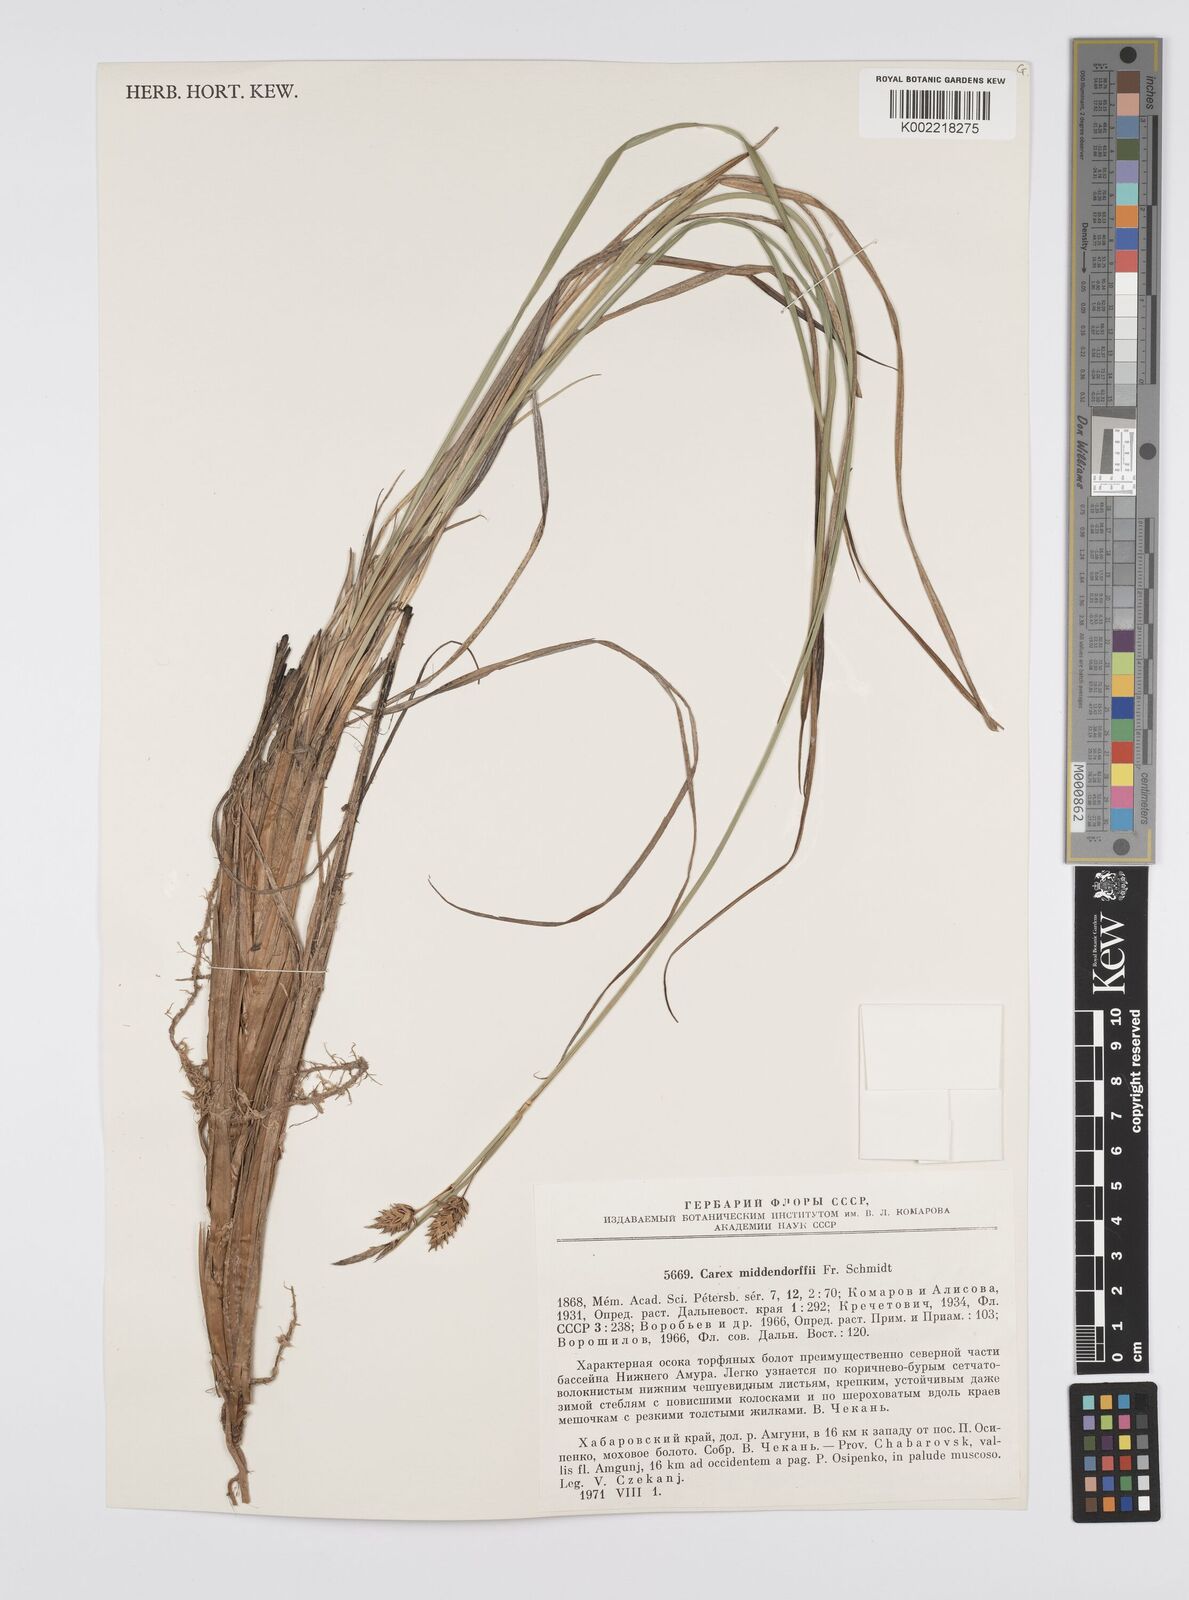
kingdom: Plantae
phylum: Tracheophyta
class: Liliopsida
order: Poales
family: Cyperaceae
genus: Carex
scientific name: Carex middendorffii
